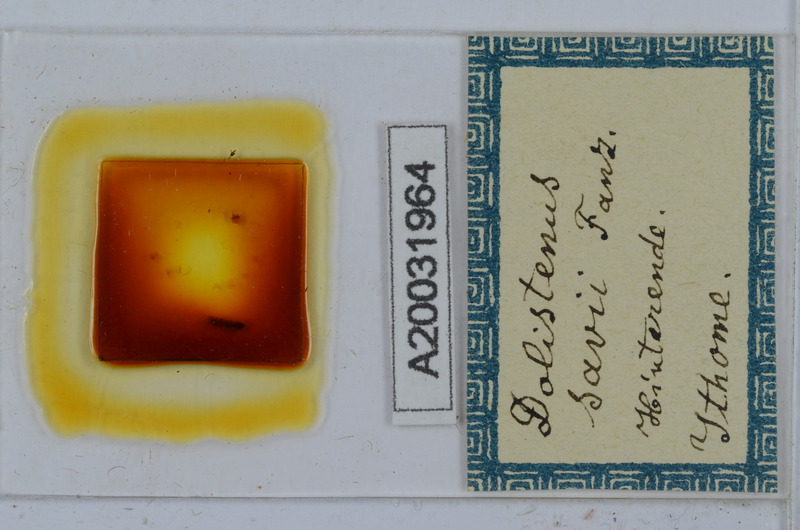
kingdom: Animalia
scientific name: Animalia
